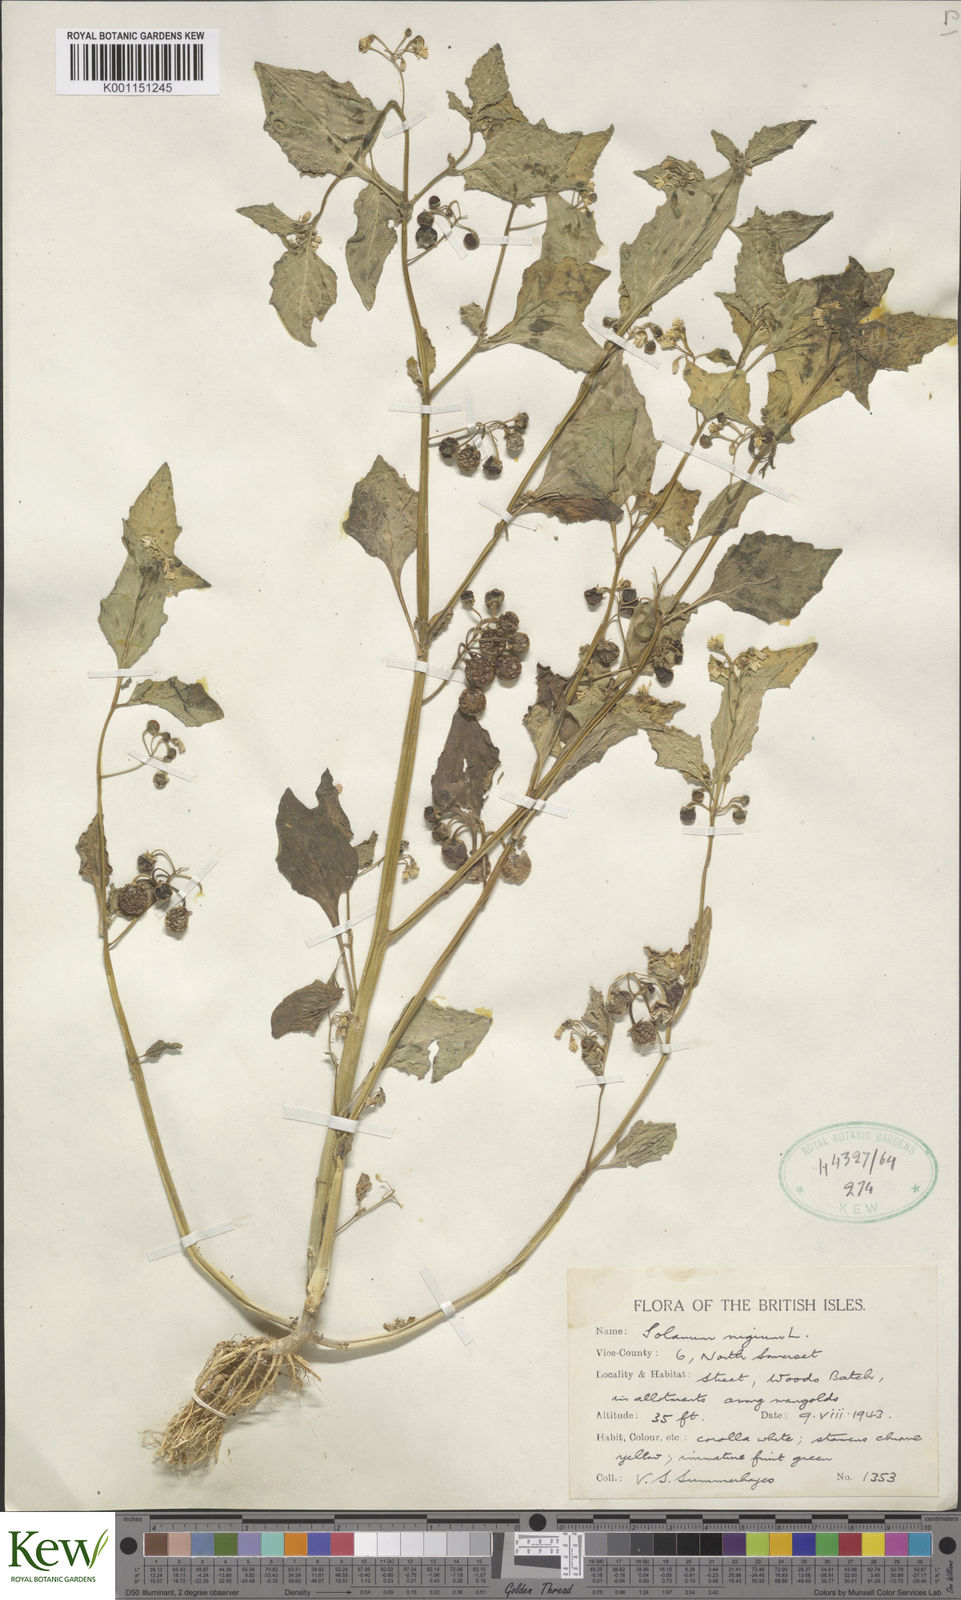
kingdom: Plantae
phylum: Tracheophyta
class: Magnoliopsida
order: Solanales
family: Solanaceae
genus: Solanum
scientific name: Solanum nigrum
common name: Black nightshade
